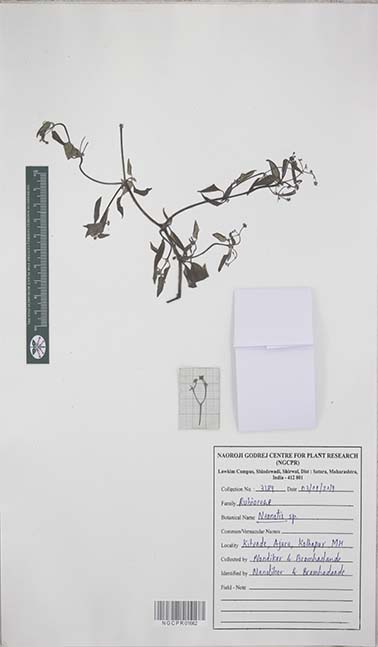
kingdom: Plantae
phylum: Tracheophyta
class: Magnoliopsida
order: Gentianales
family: Rubiaceae
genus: Neanotis
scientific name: Neanotis
